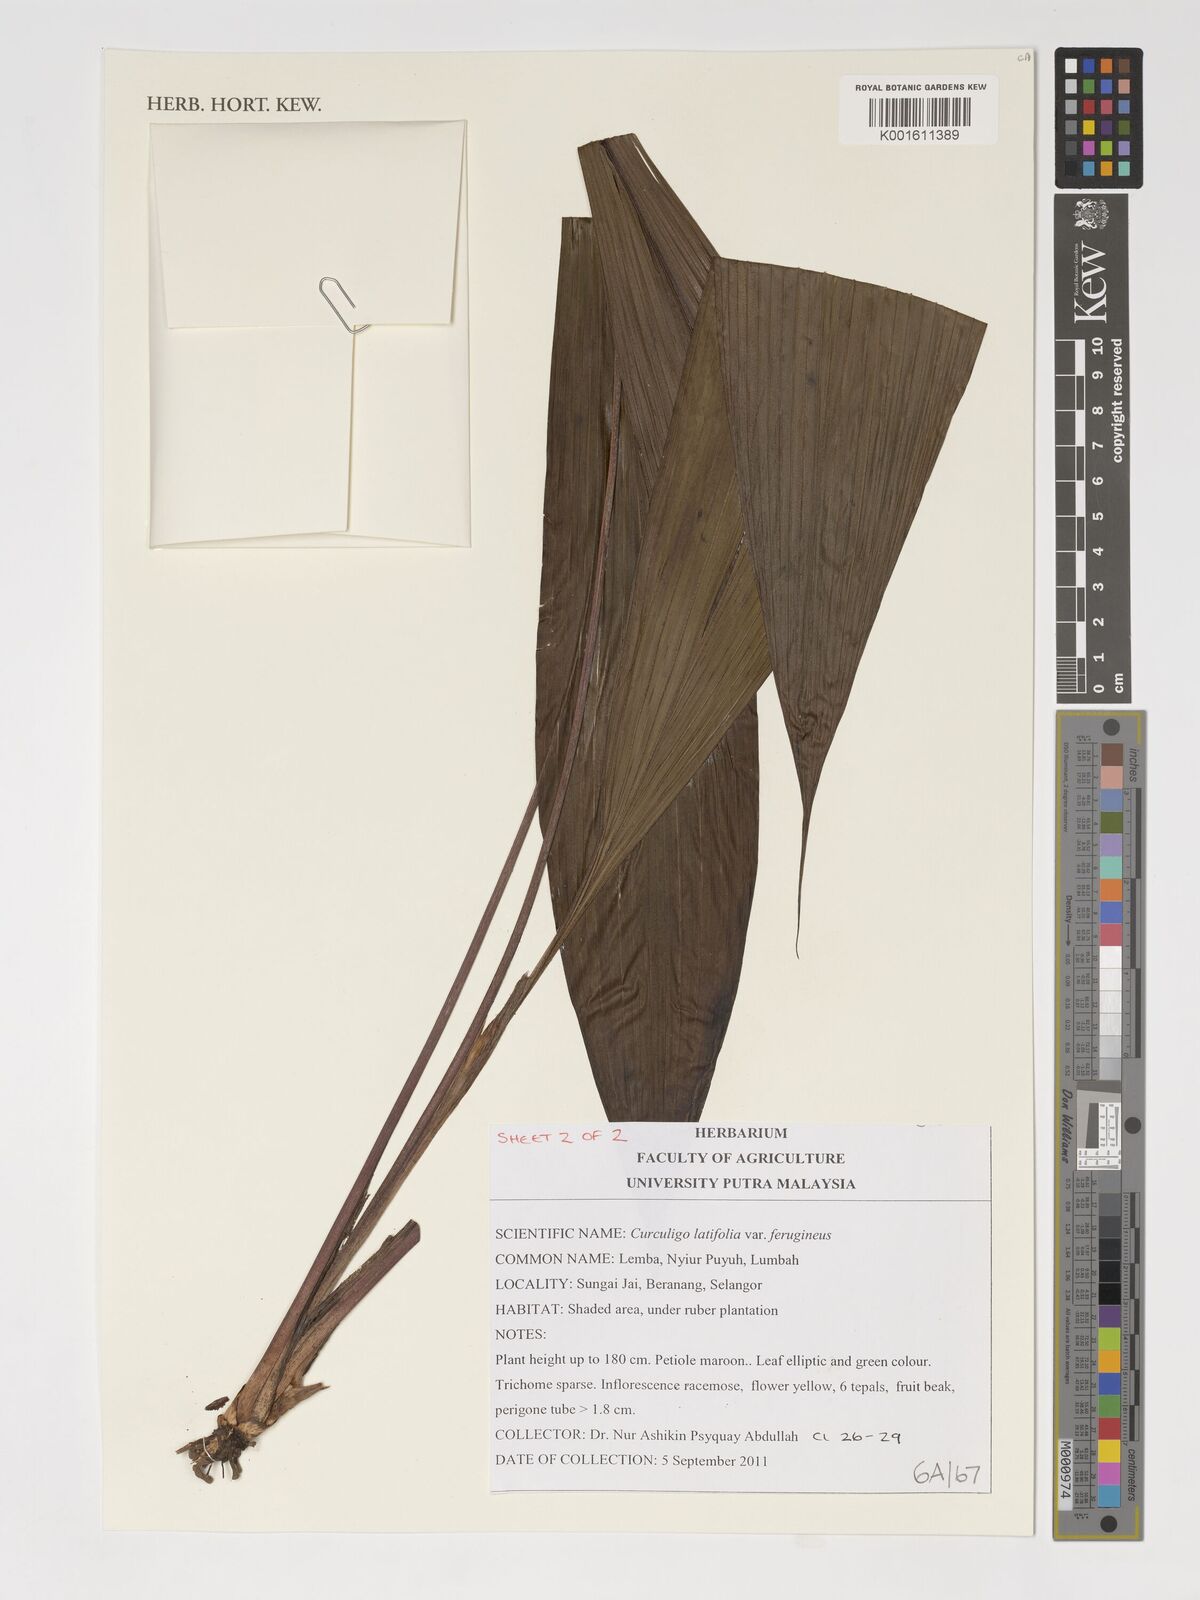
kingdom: Plantae
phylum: Tracheophyta
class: Liliopsida
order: Asparagales
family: Hypoxidaceae
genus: Curculigo
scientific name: Curculigo latifolia
